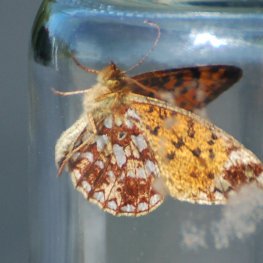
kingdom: Animalia
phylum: Arthropoda
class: Insecta
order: Lepidoptera
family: Nymphalidae
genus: Boloria
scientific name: Boloria selene
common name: Silver-bordered Fritillary
